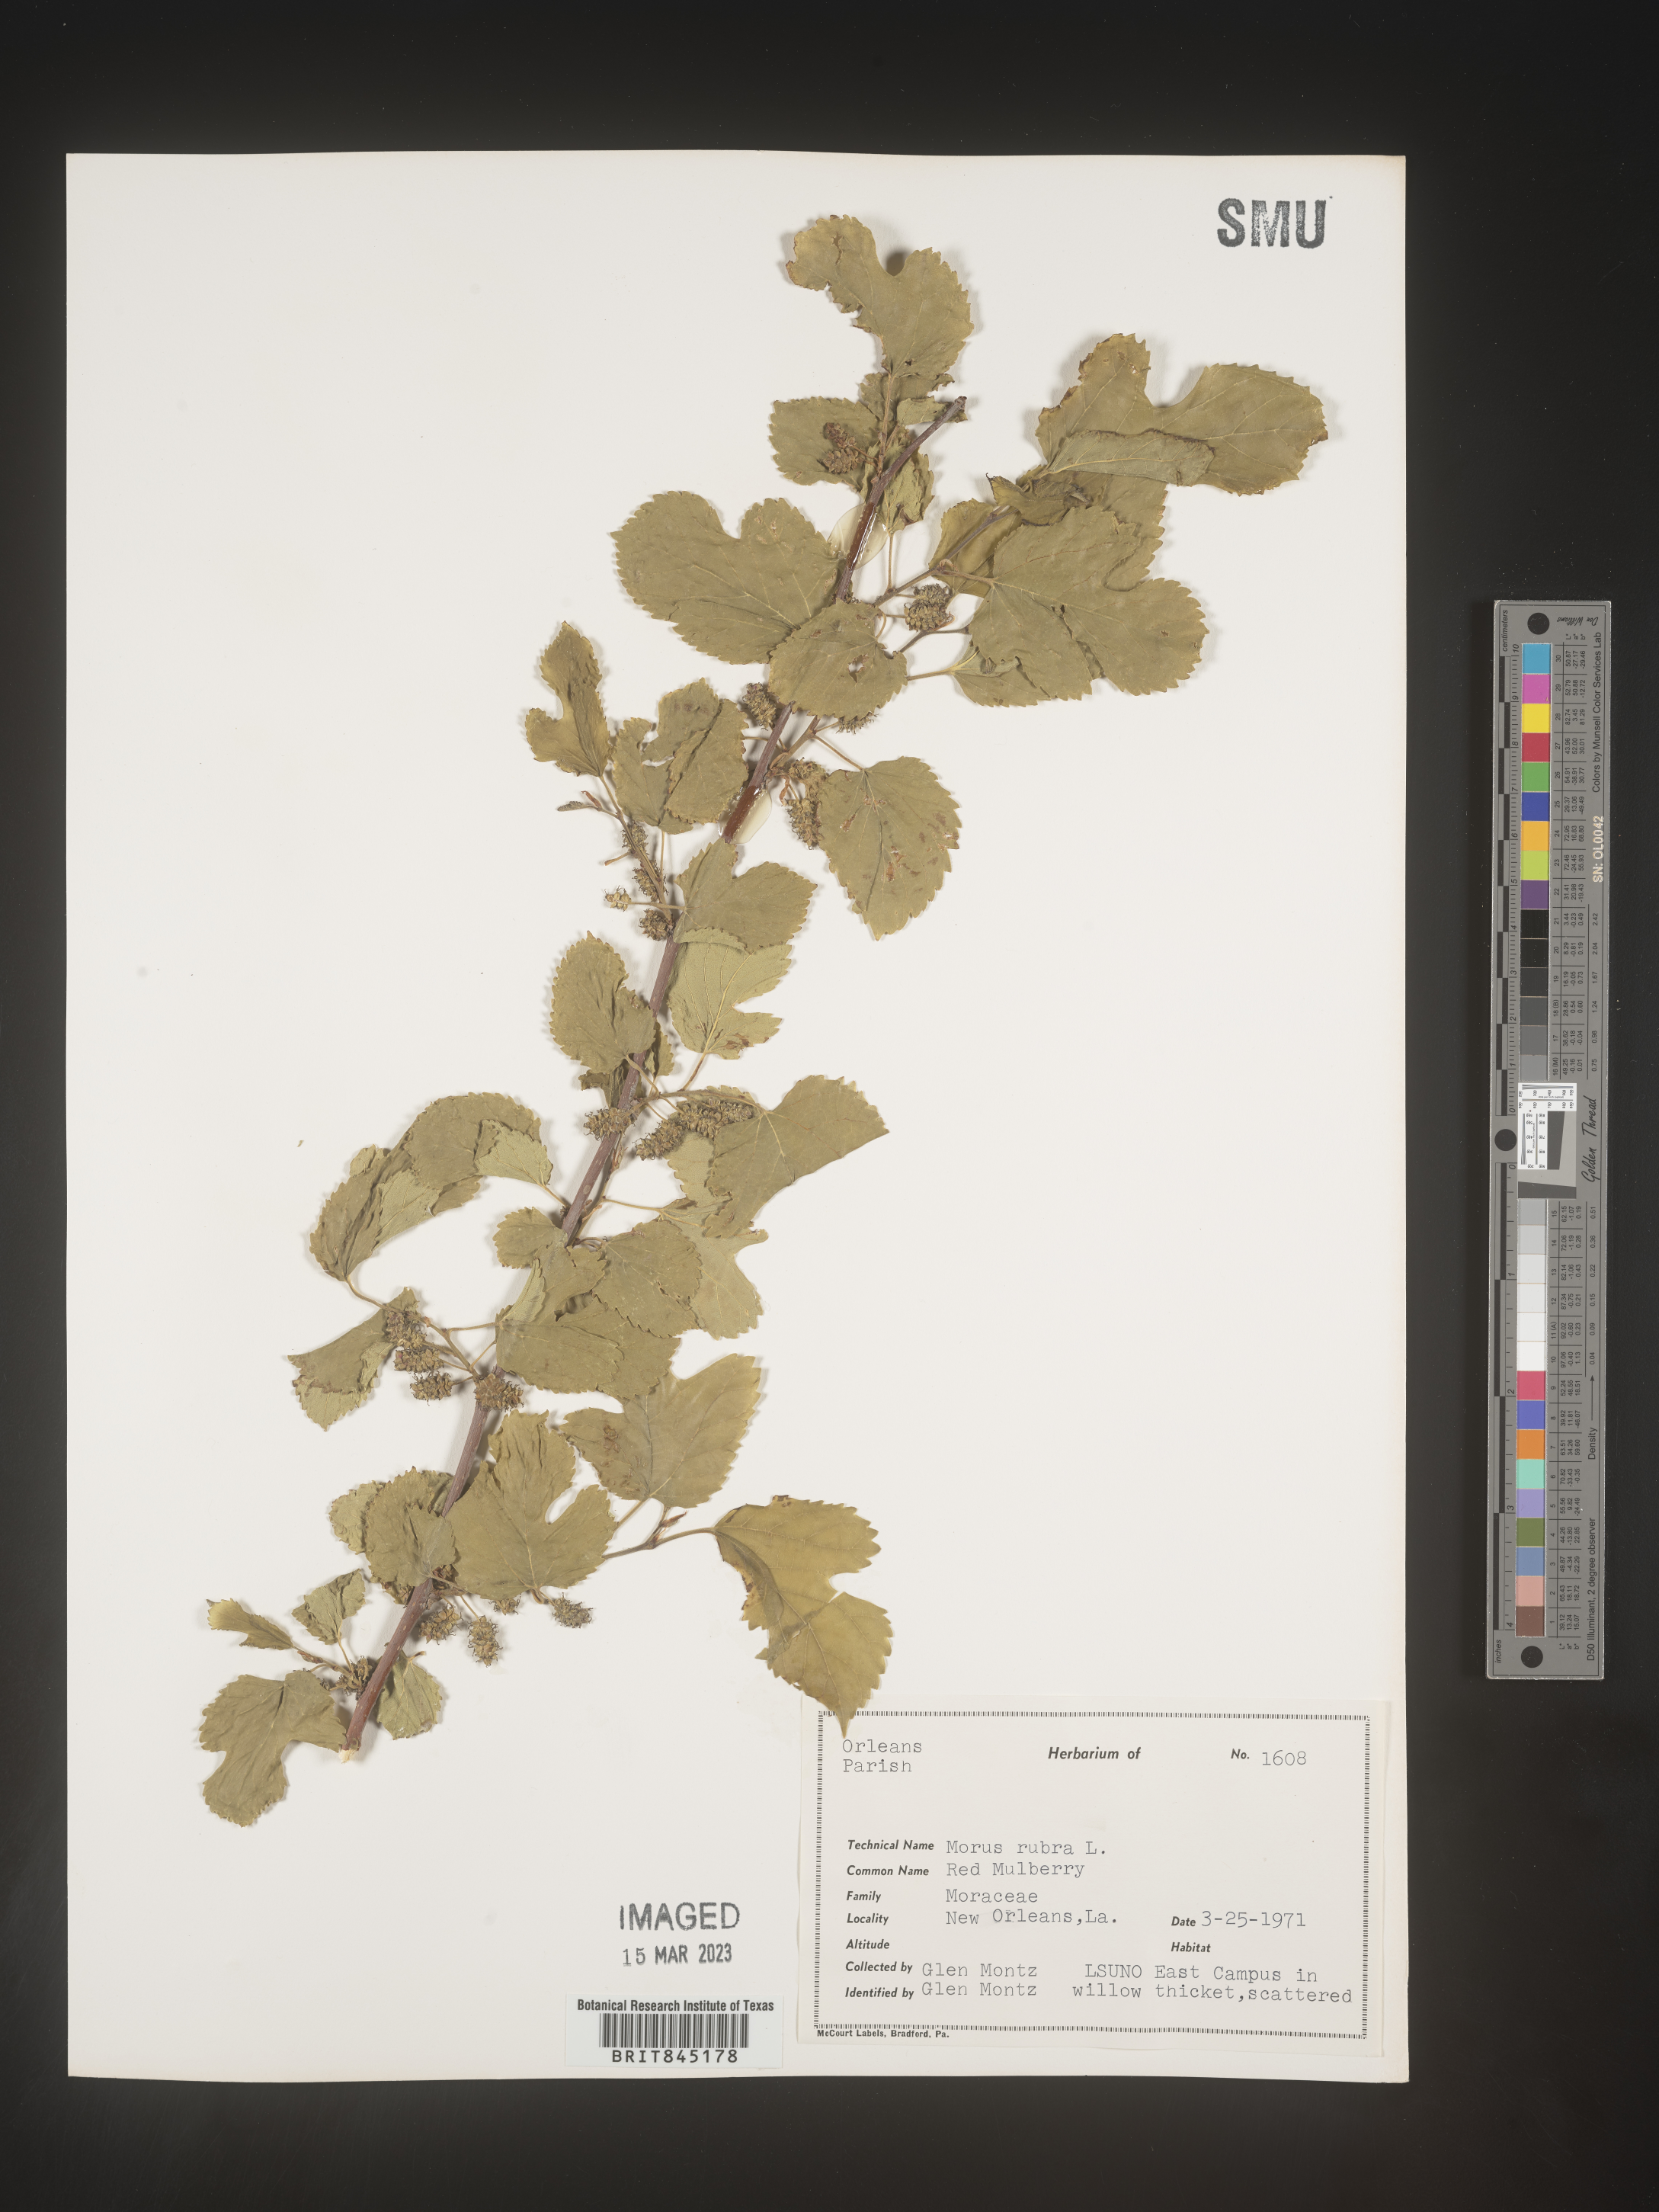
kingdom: Plantae
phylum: Tracheophyta
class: Magnoliopsida
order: Rosales
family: Moraceae
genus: Morus
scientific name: Morus rubra
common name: Red mulberry
